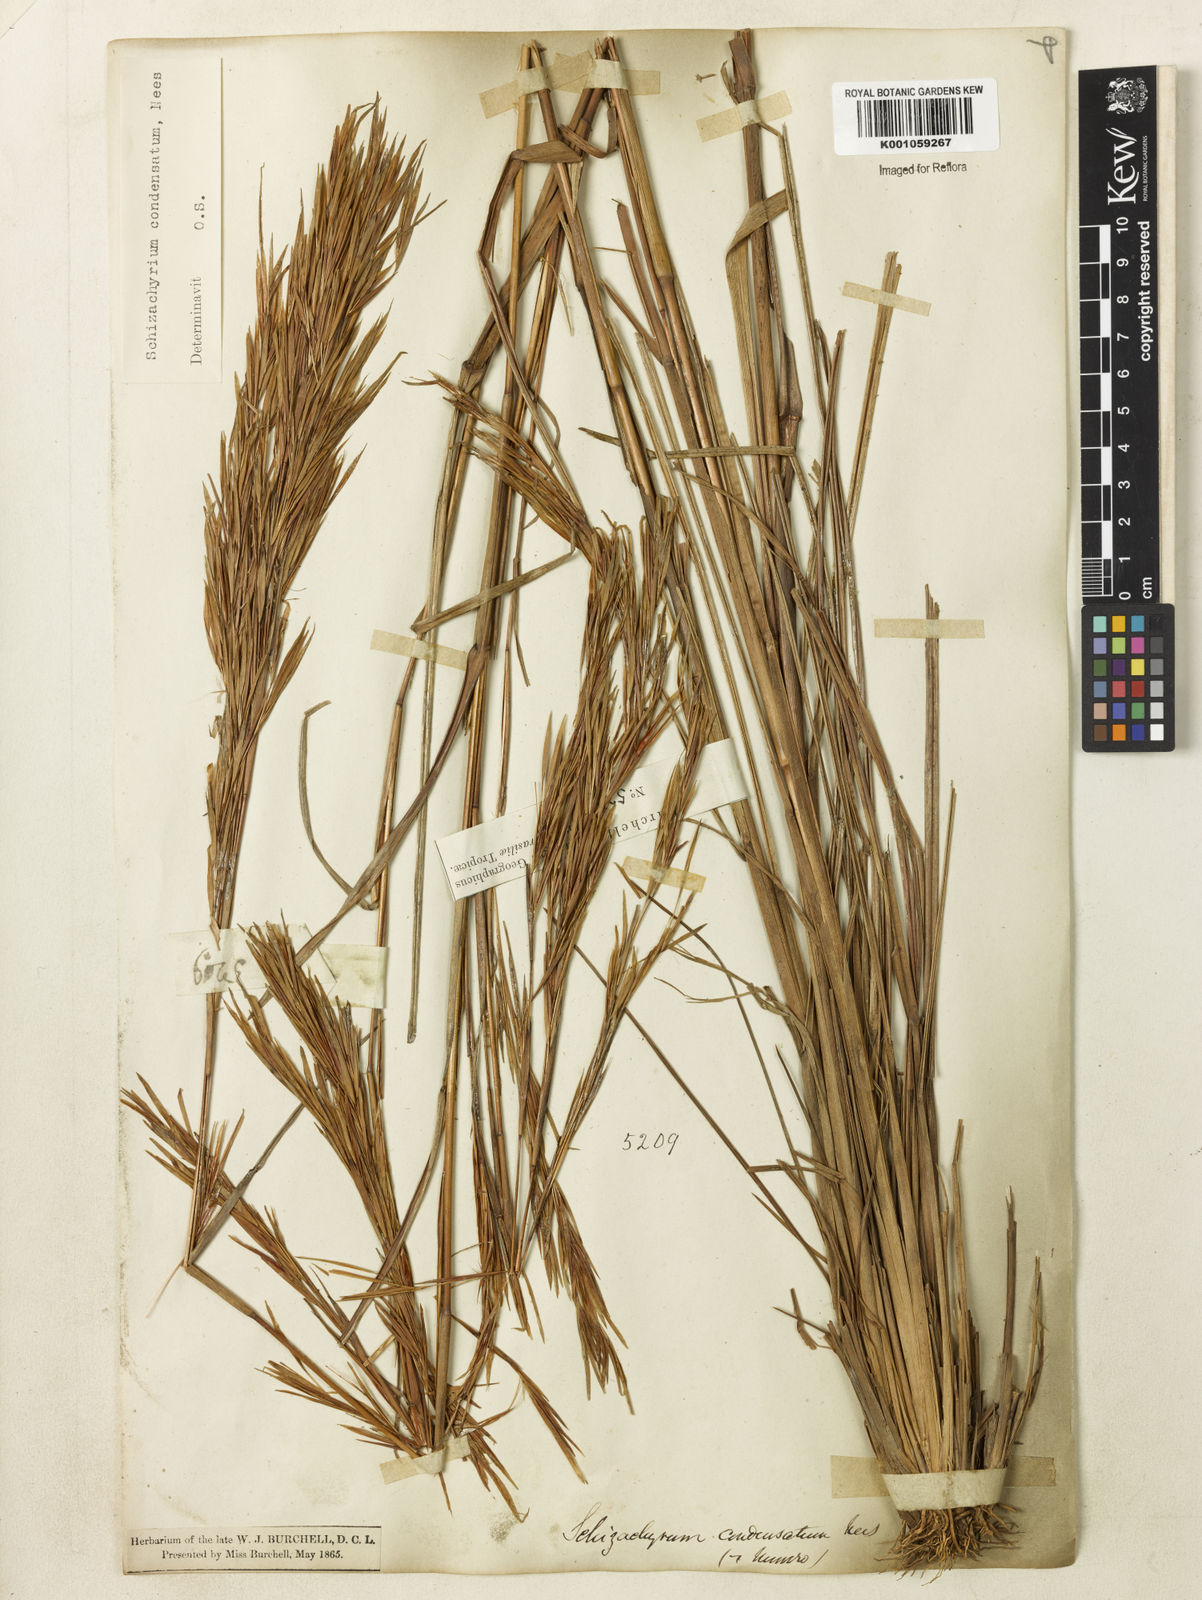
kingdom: Plantae
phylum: Tracheophyta
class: Liliopsida
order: Poales
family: Poaceae
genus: Schizachyrium
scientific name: Schizachyrium
